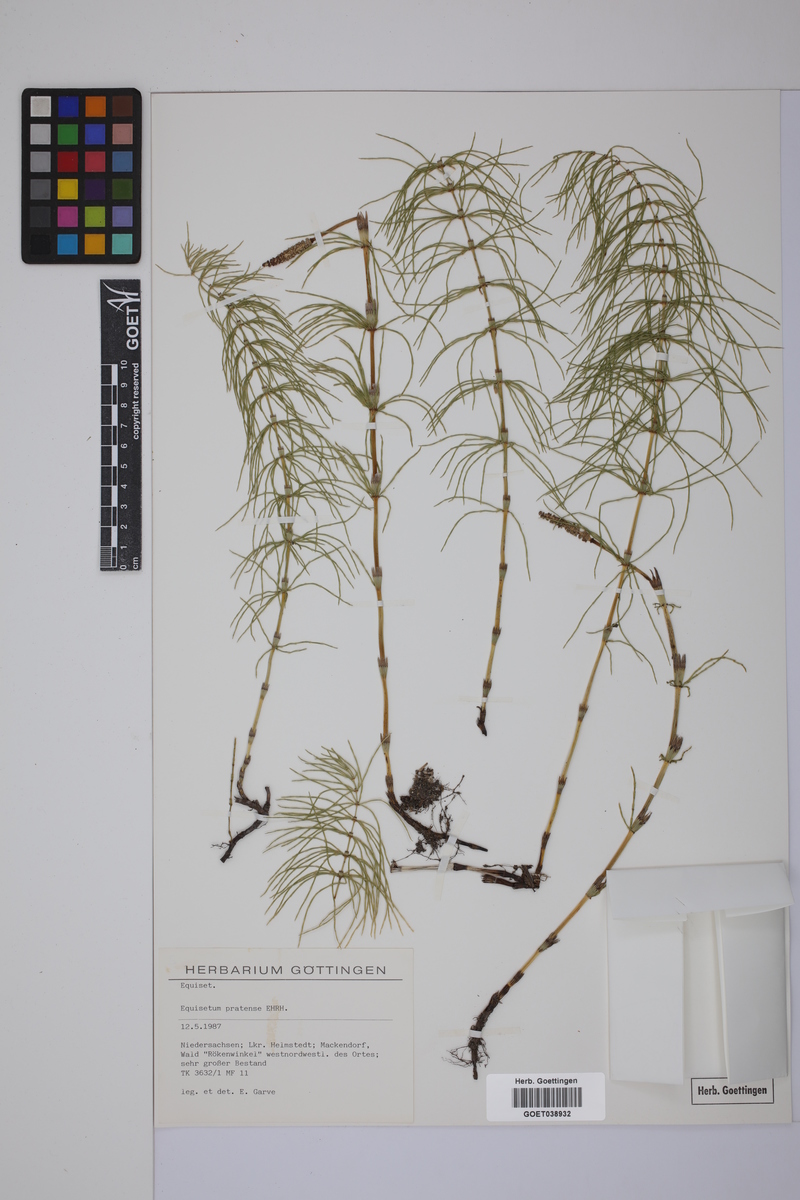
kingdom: Plantae
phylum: Tracheophyta
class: Polypodiopsida
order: Equisetales
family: Equisetaceae
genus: Equisetum
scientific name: Equisetum pratense
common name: Meadow horsetail
